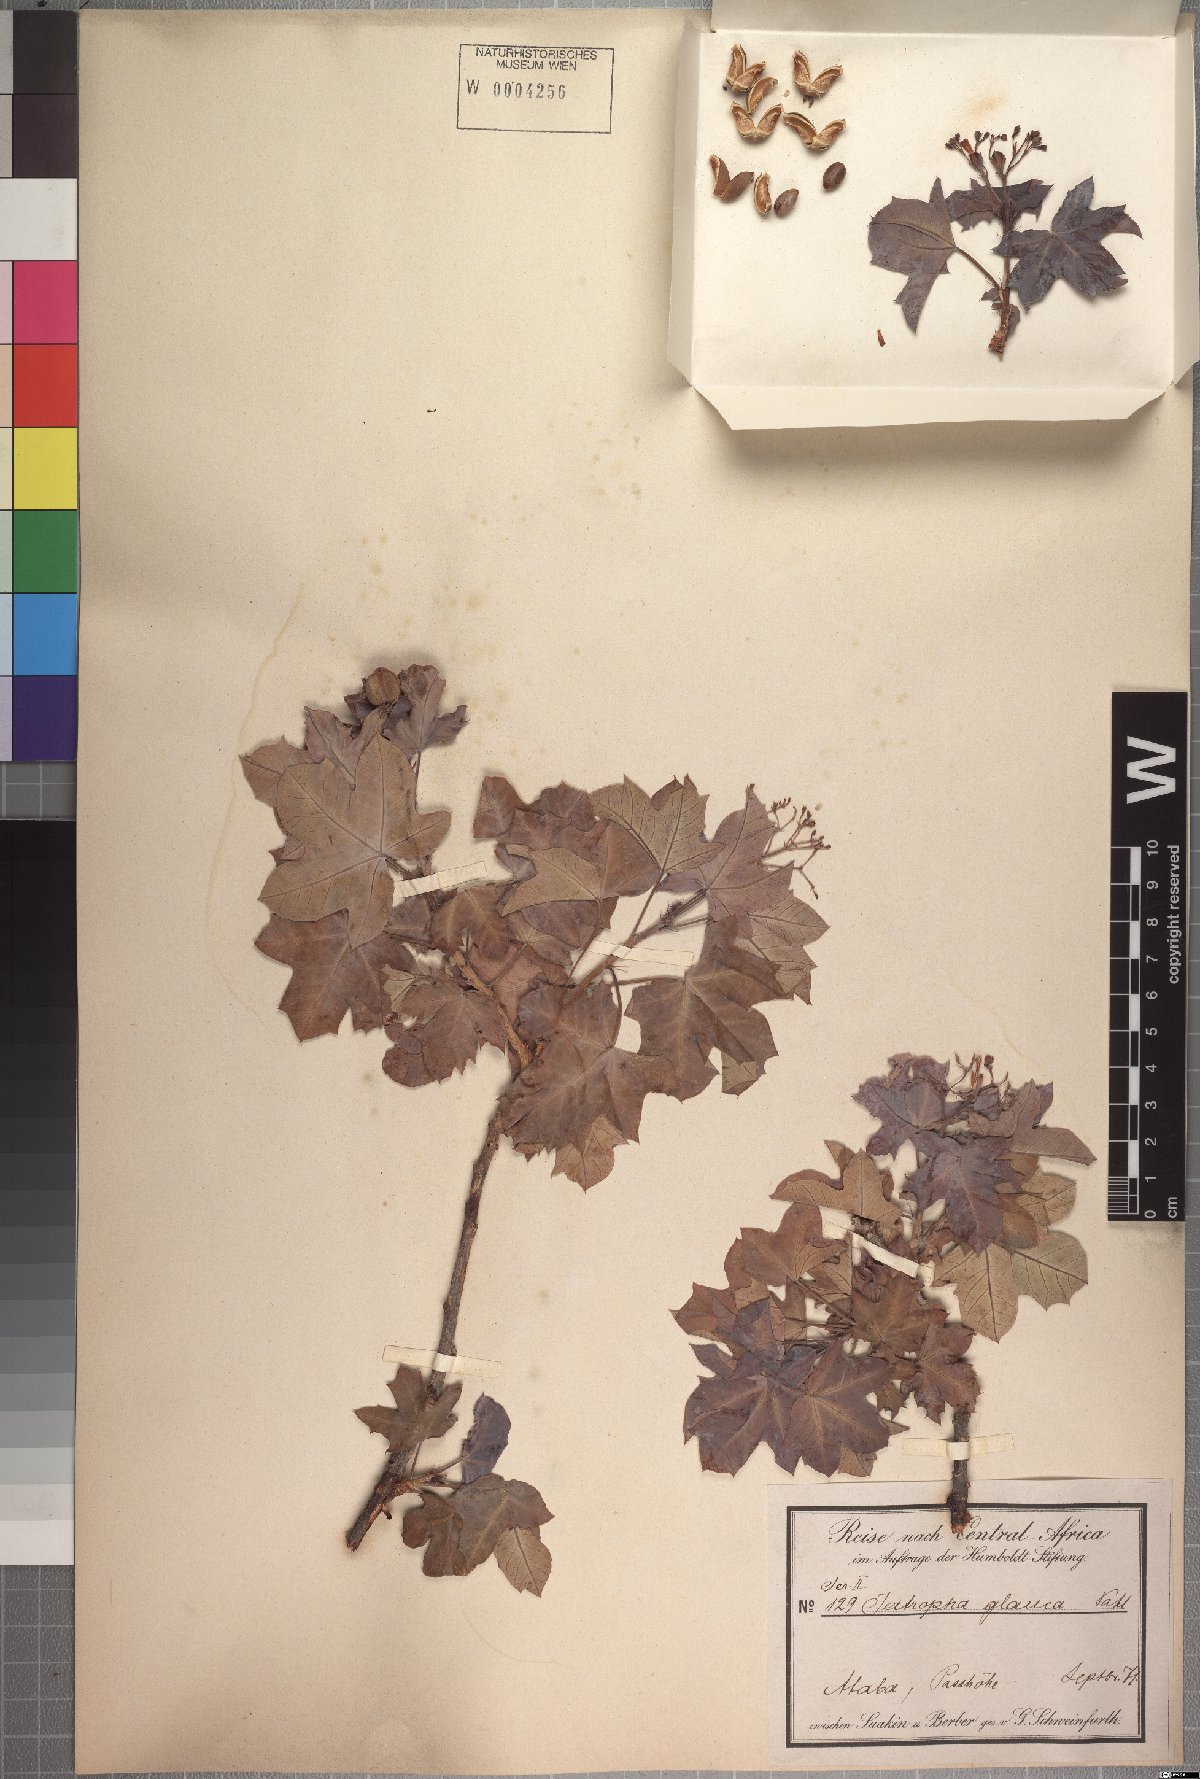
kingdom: Plantae
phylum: Tracheophyta
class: Magnoliopsida
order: Malpighiales
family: Euphorbiaceae
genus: Jatropha
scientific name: Jatropha aceroides
